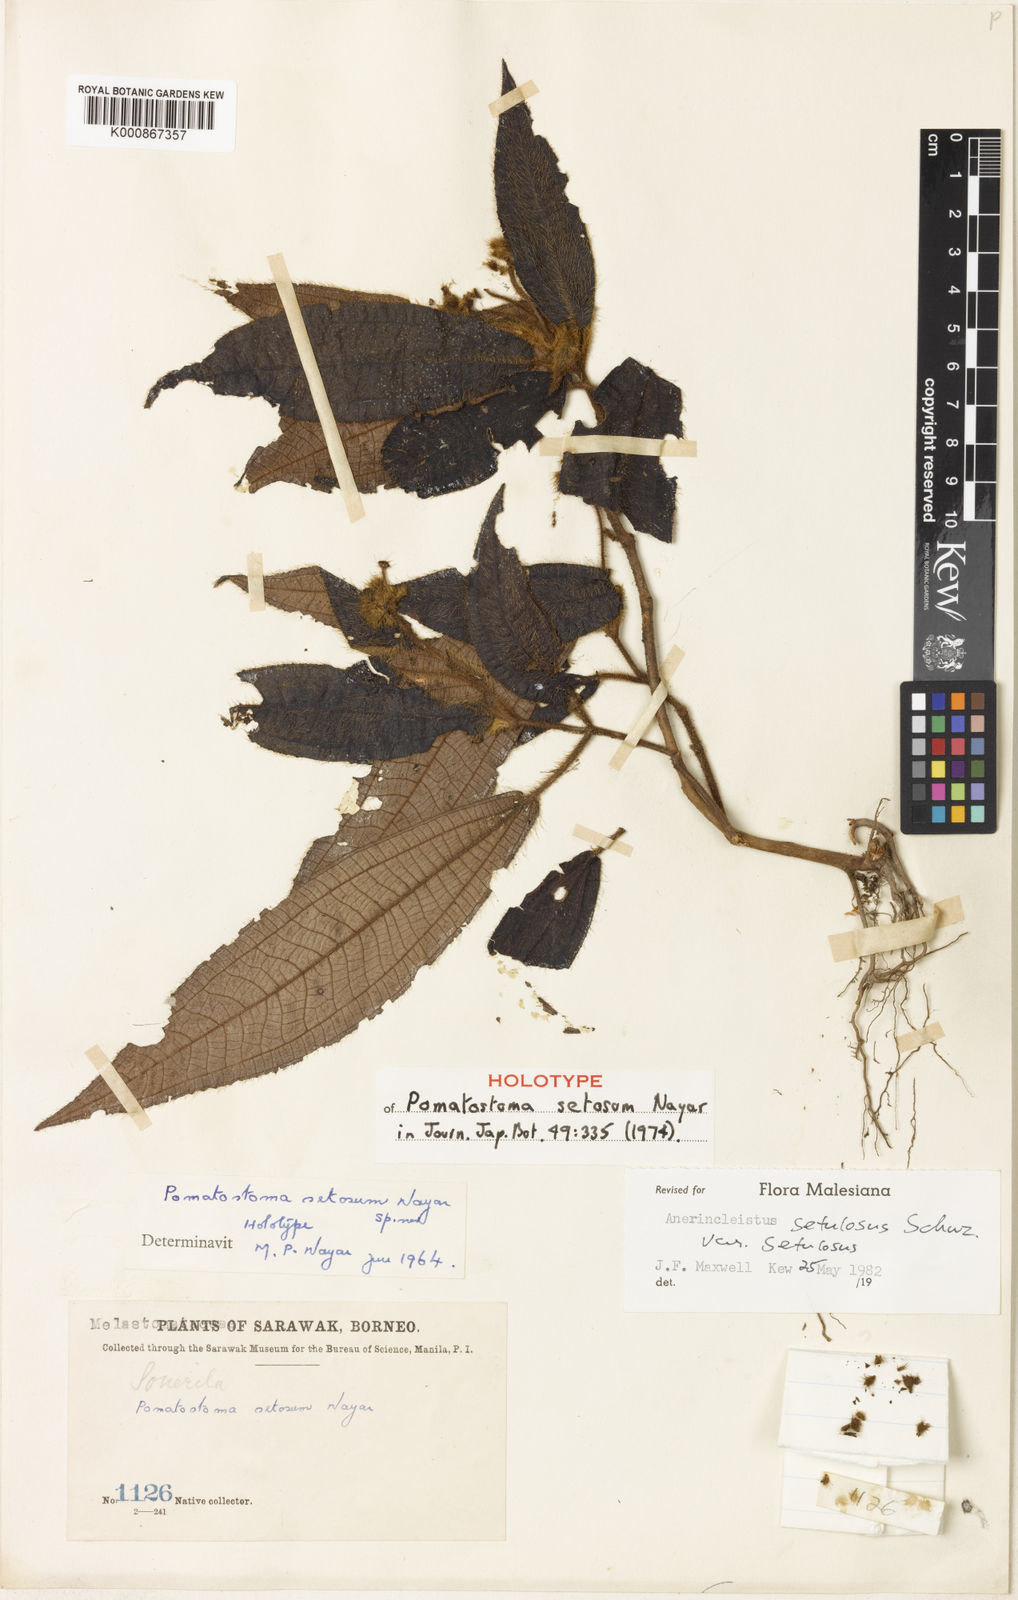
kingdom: Plantae
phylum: Tracheophyta
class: Magnoliopsida
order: Myrtales
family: Melastomataceae
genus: Anerincleistus
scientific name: Anerincleistus
